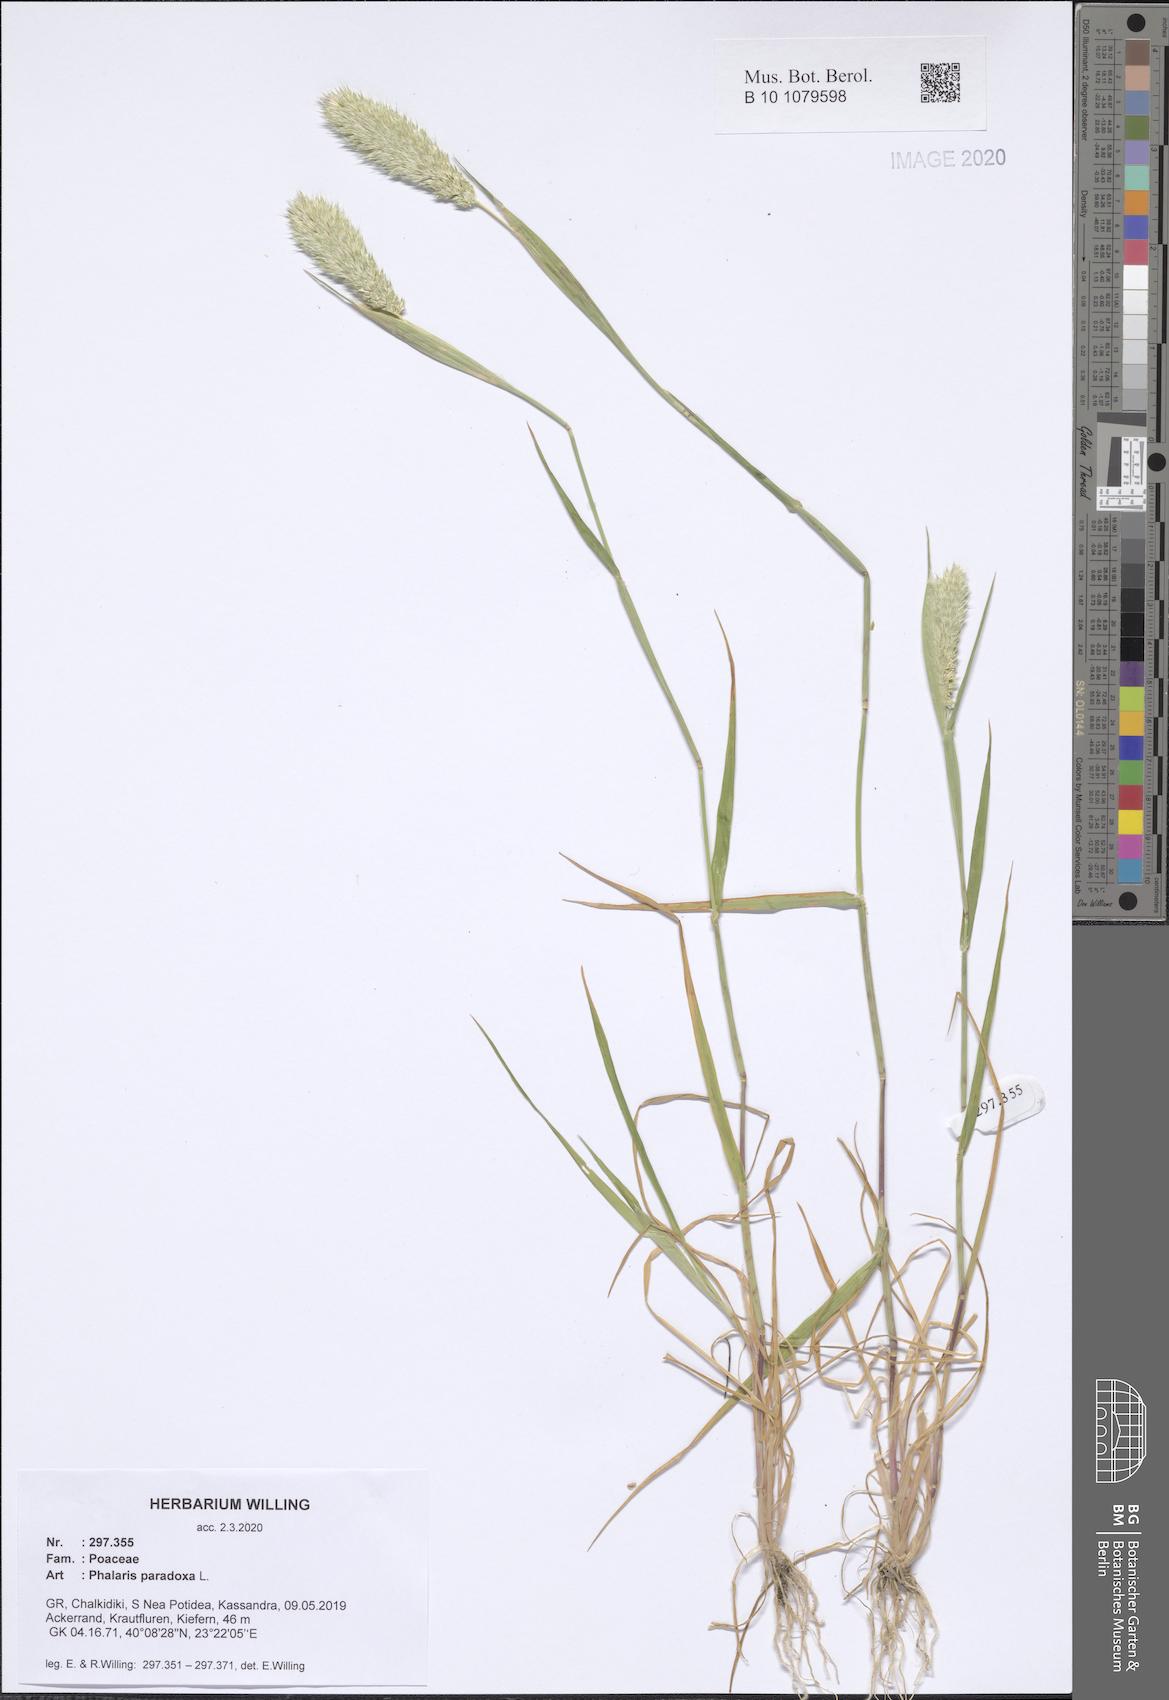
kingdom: Plantae
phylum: Tracheophyta
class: Liliopsida
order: Poales
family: Poaceae
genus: Phalaris
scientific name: Phalaris paradoxa
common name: Awned canary-grass
